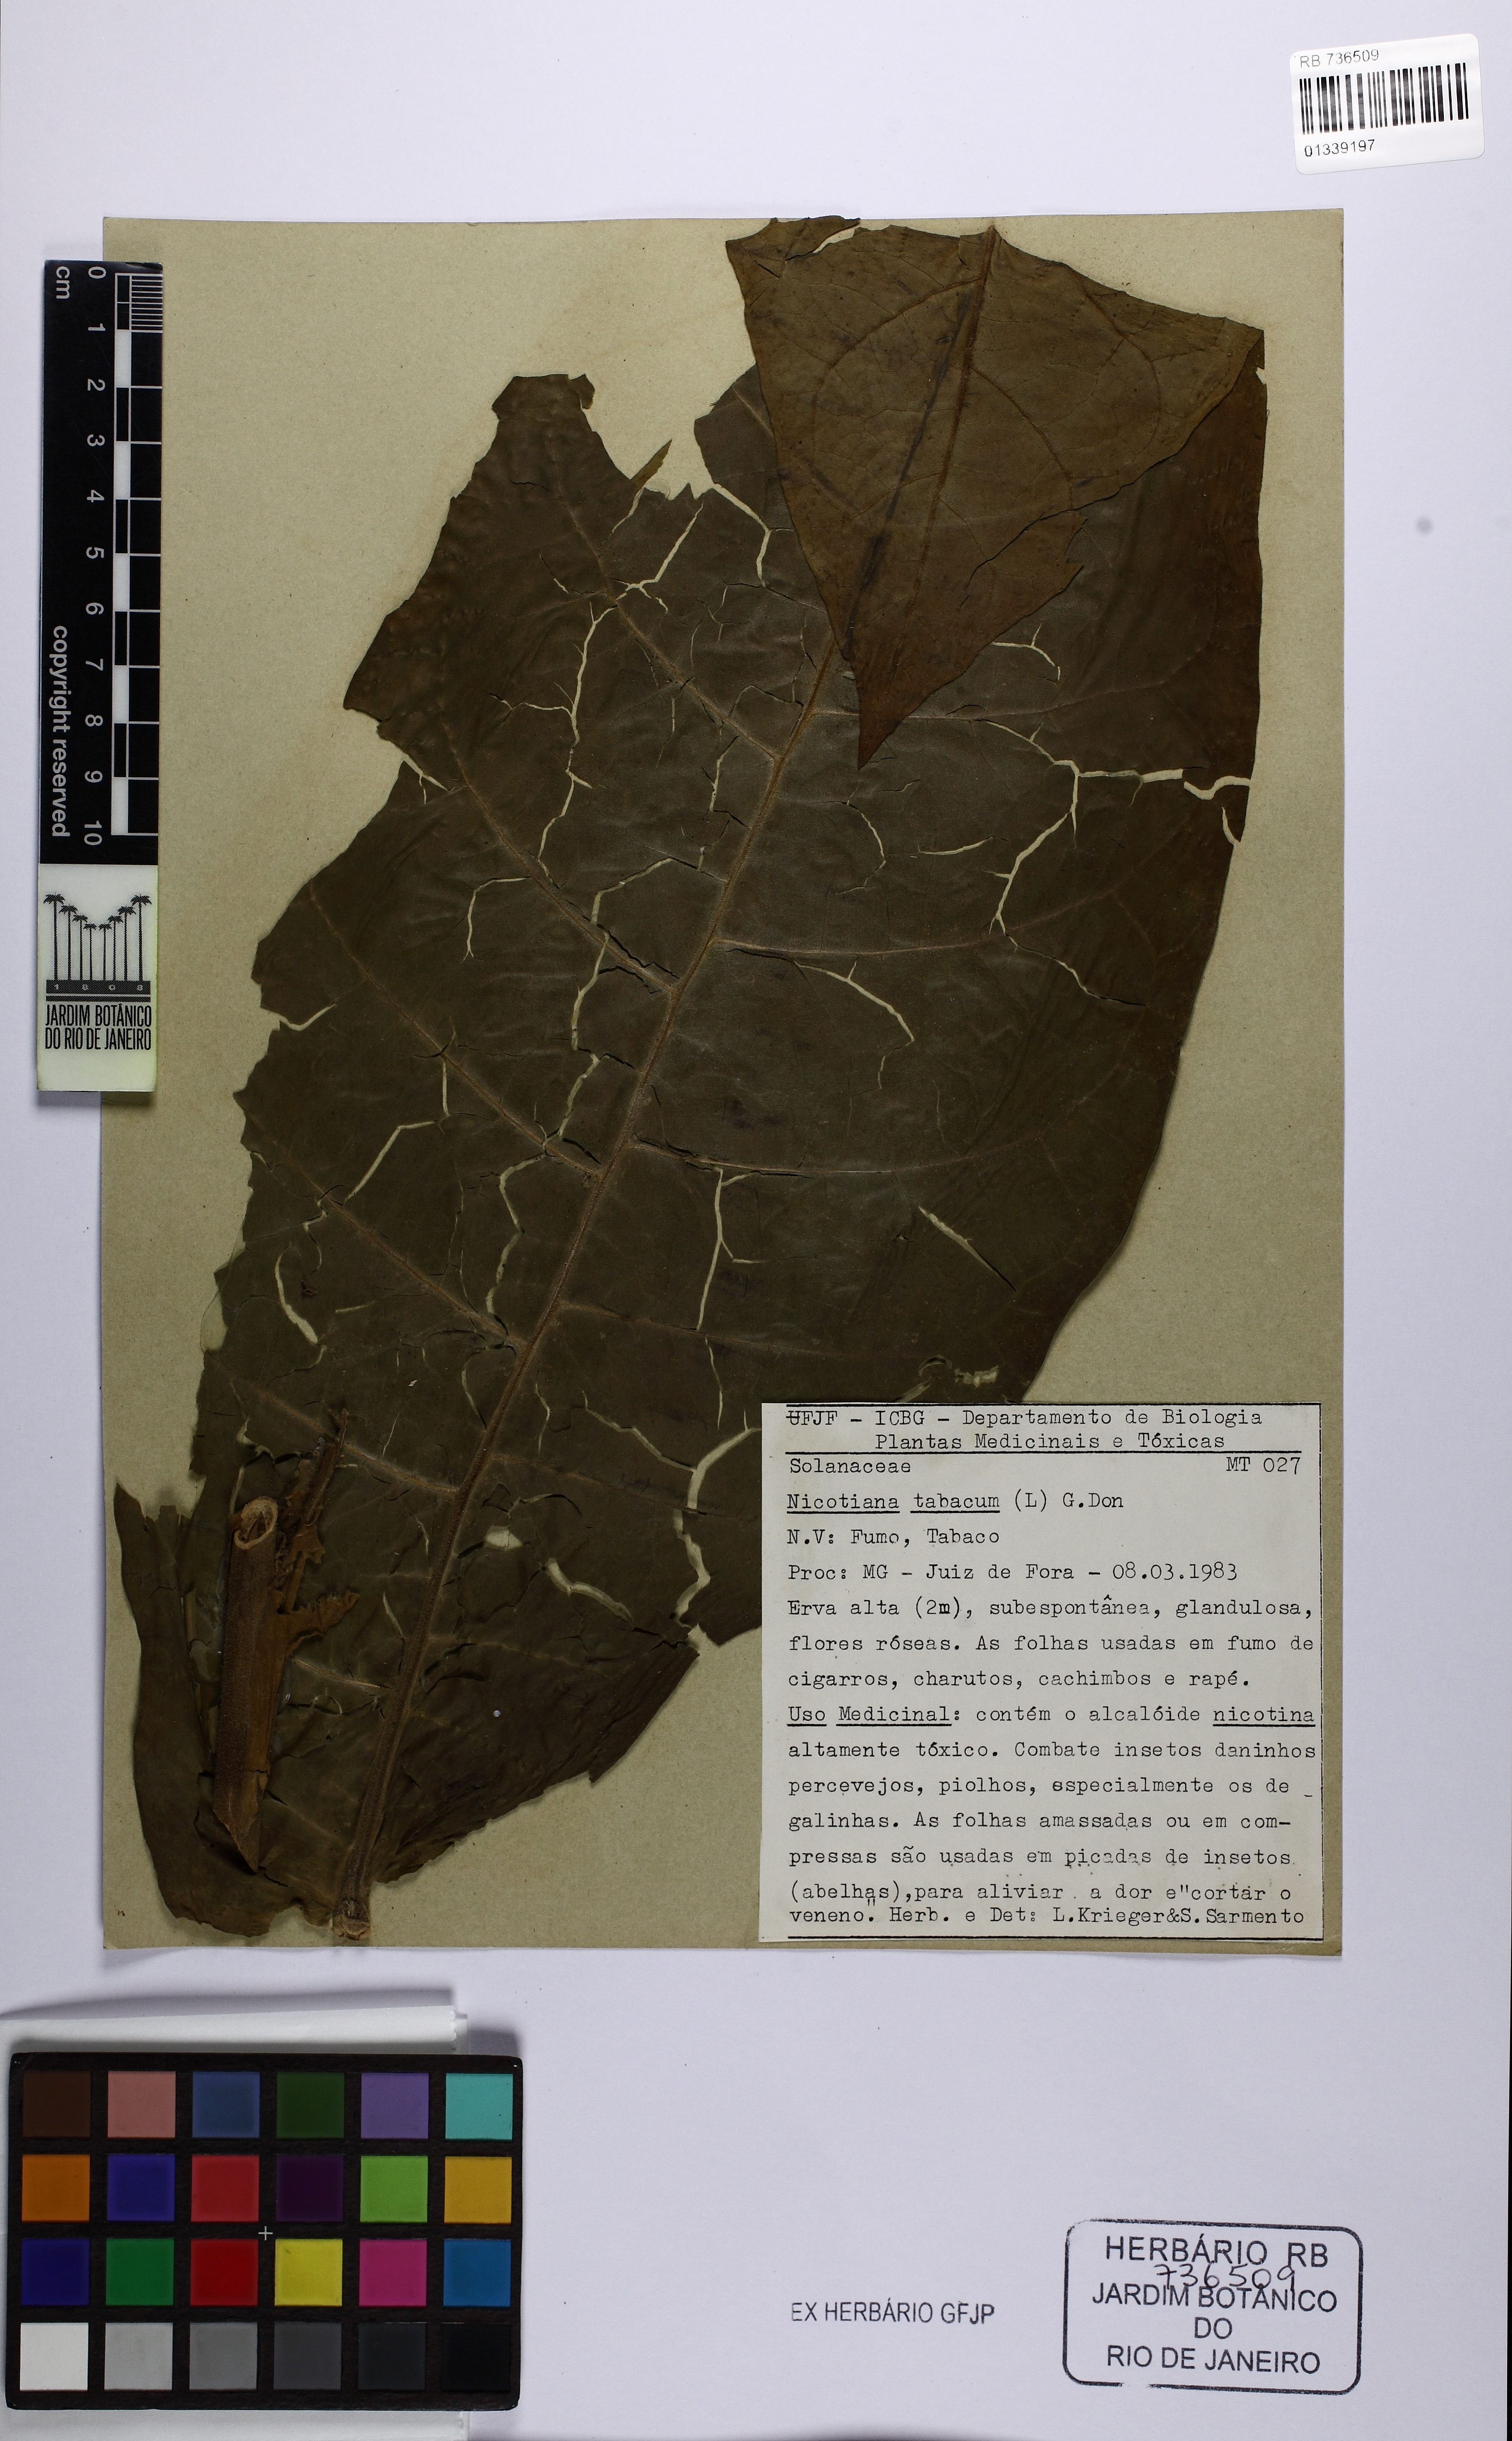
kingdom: Plantae
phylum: Tracheophyta
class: Magnoliopsida
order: Solanales
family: Solanaceae
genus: Nicotiana
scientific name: Nicotiana tabacum
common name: Tobacco
